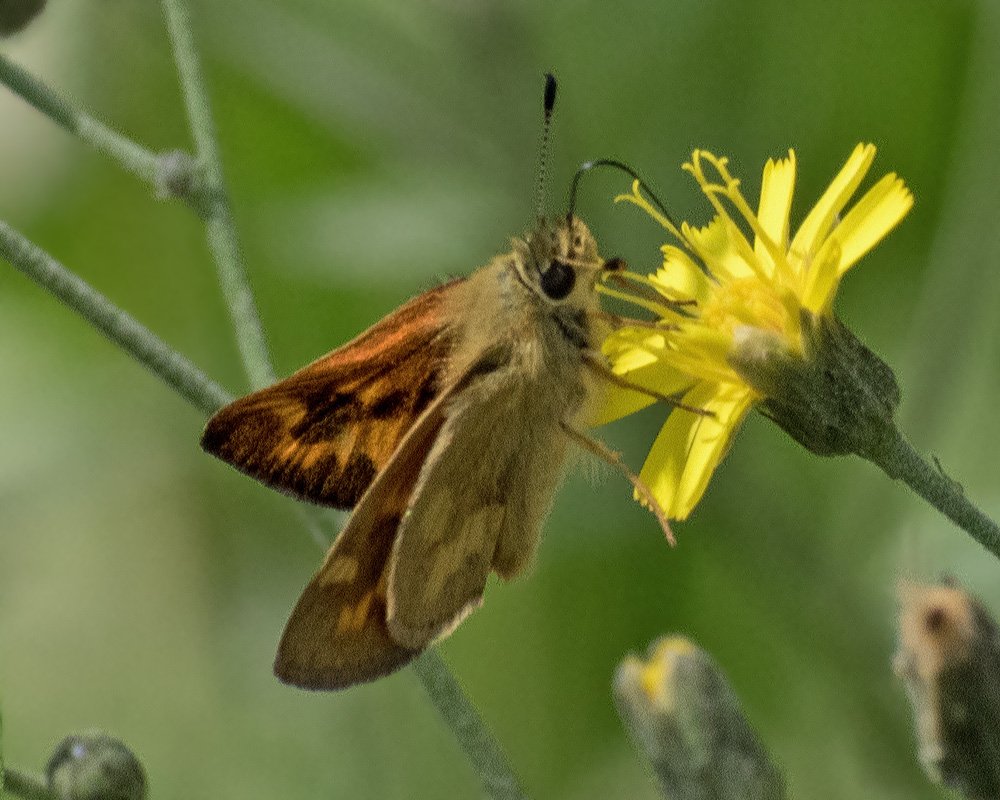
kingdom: Animalia
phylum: Arthropoda
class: Insecta
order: Lepidoptera
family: Hesperiidae
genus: Ochlodes
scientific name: Ochlodes sylvanoides
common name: Woodland Skipper
